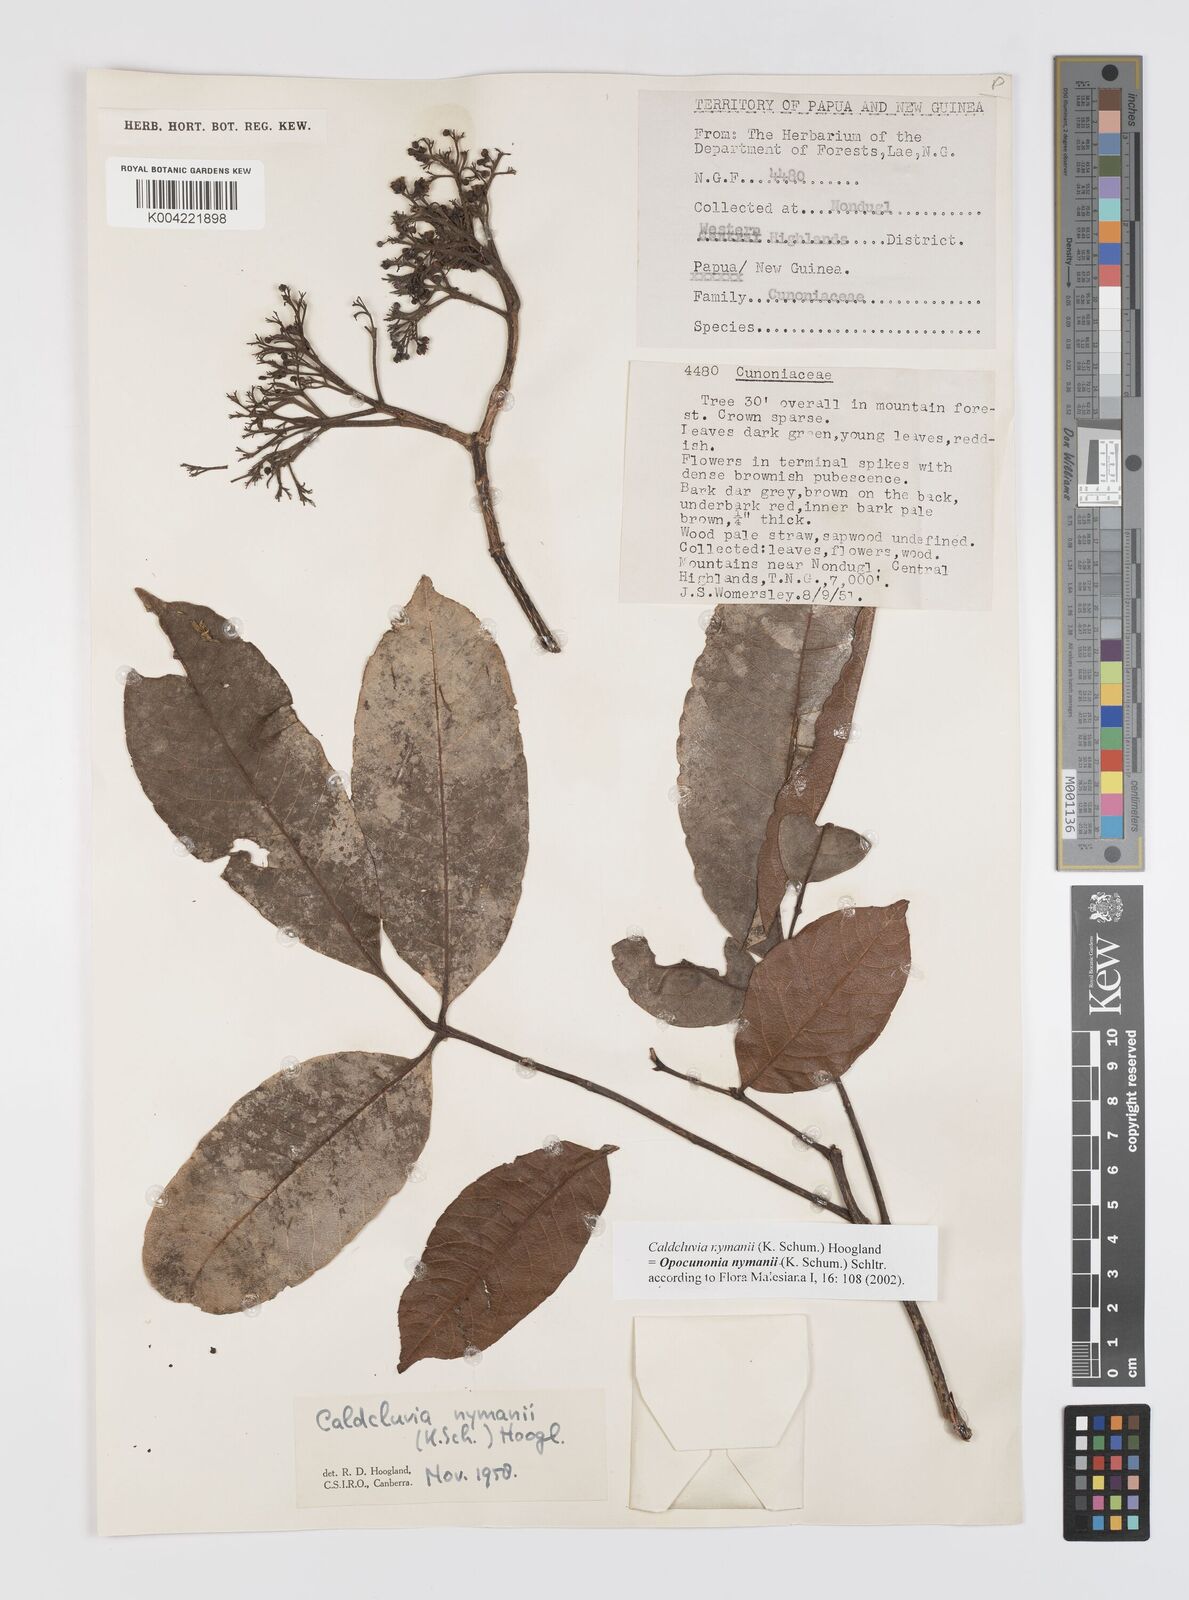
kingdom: Plantae
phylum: Tracheophyta
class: Magnoliopsida
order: Oxalidales
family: Cunoniaceae
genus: Opocunonia
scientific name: Opocunonia nymanii
